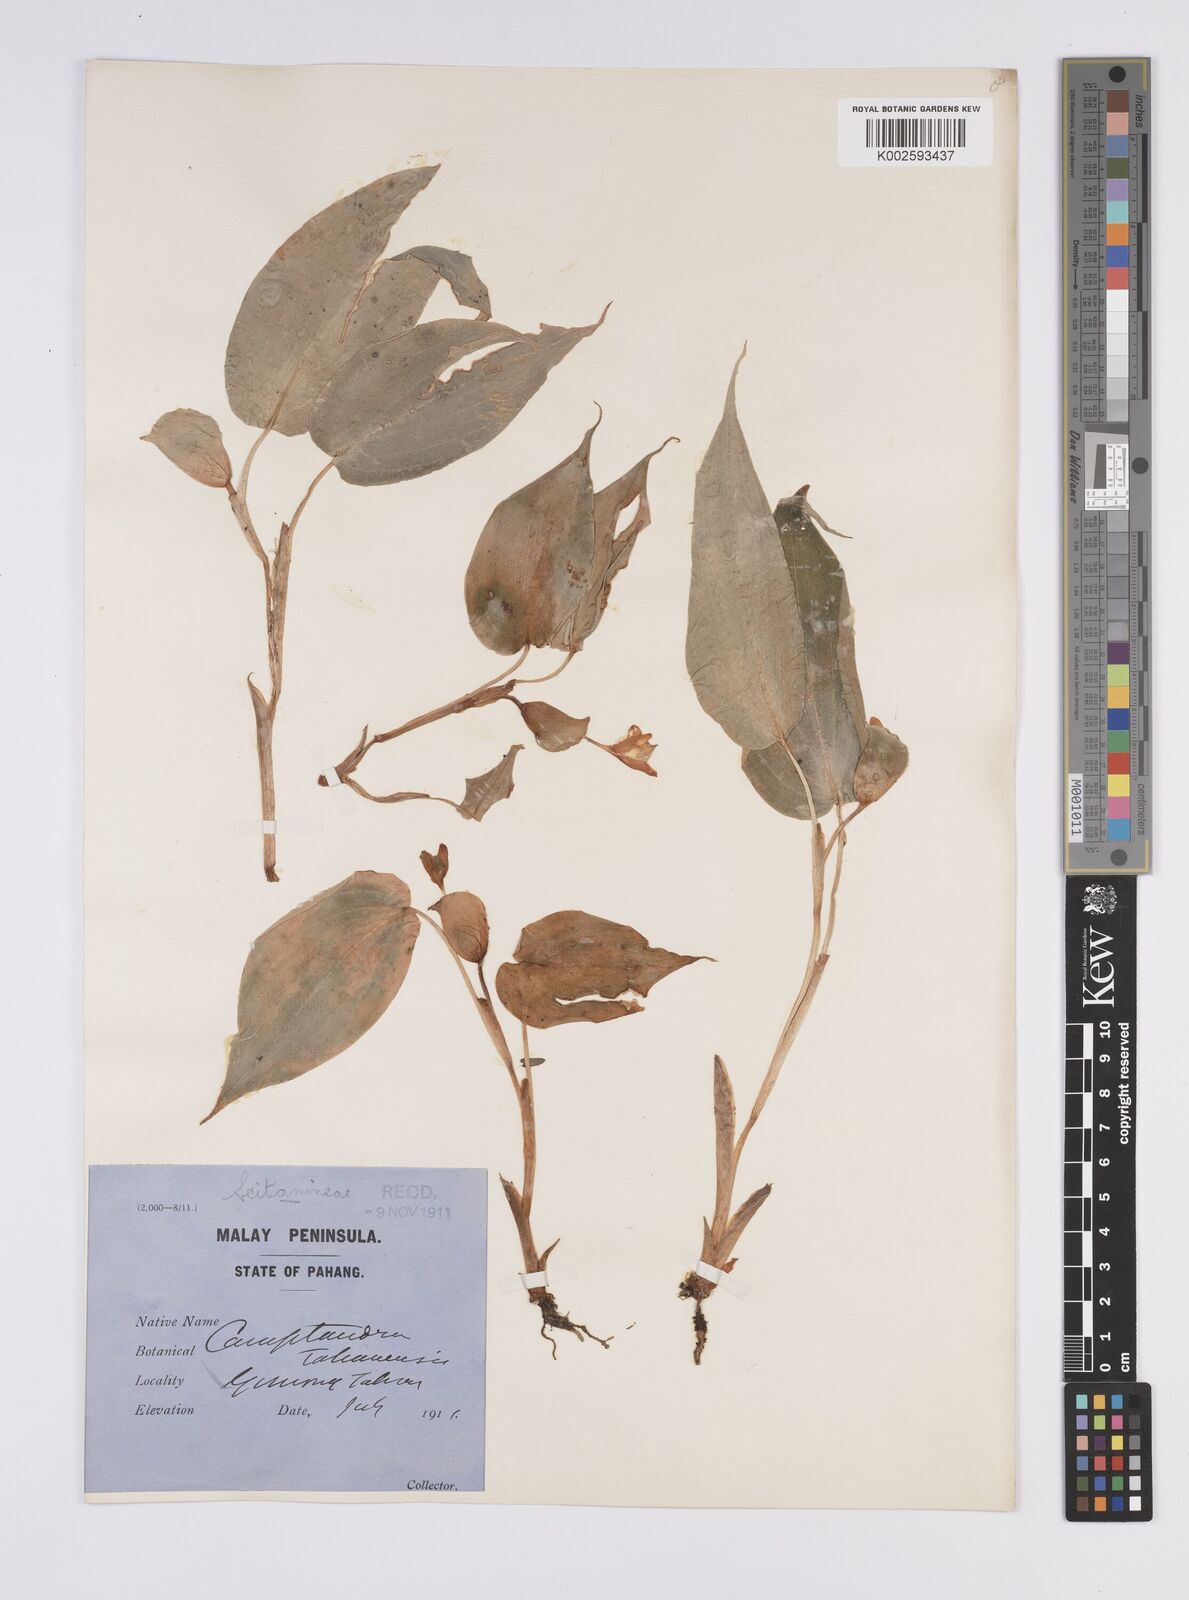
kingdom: Plantae
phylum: Tracheophyta
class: Liliopsida
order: Zingiberales
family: Zingiberaceae
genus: Camptandra
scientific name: Camptandra ovata
